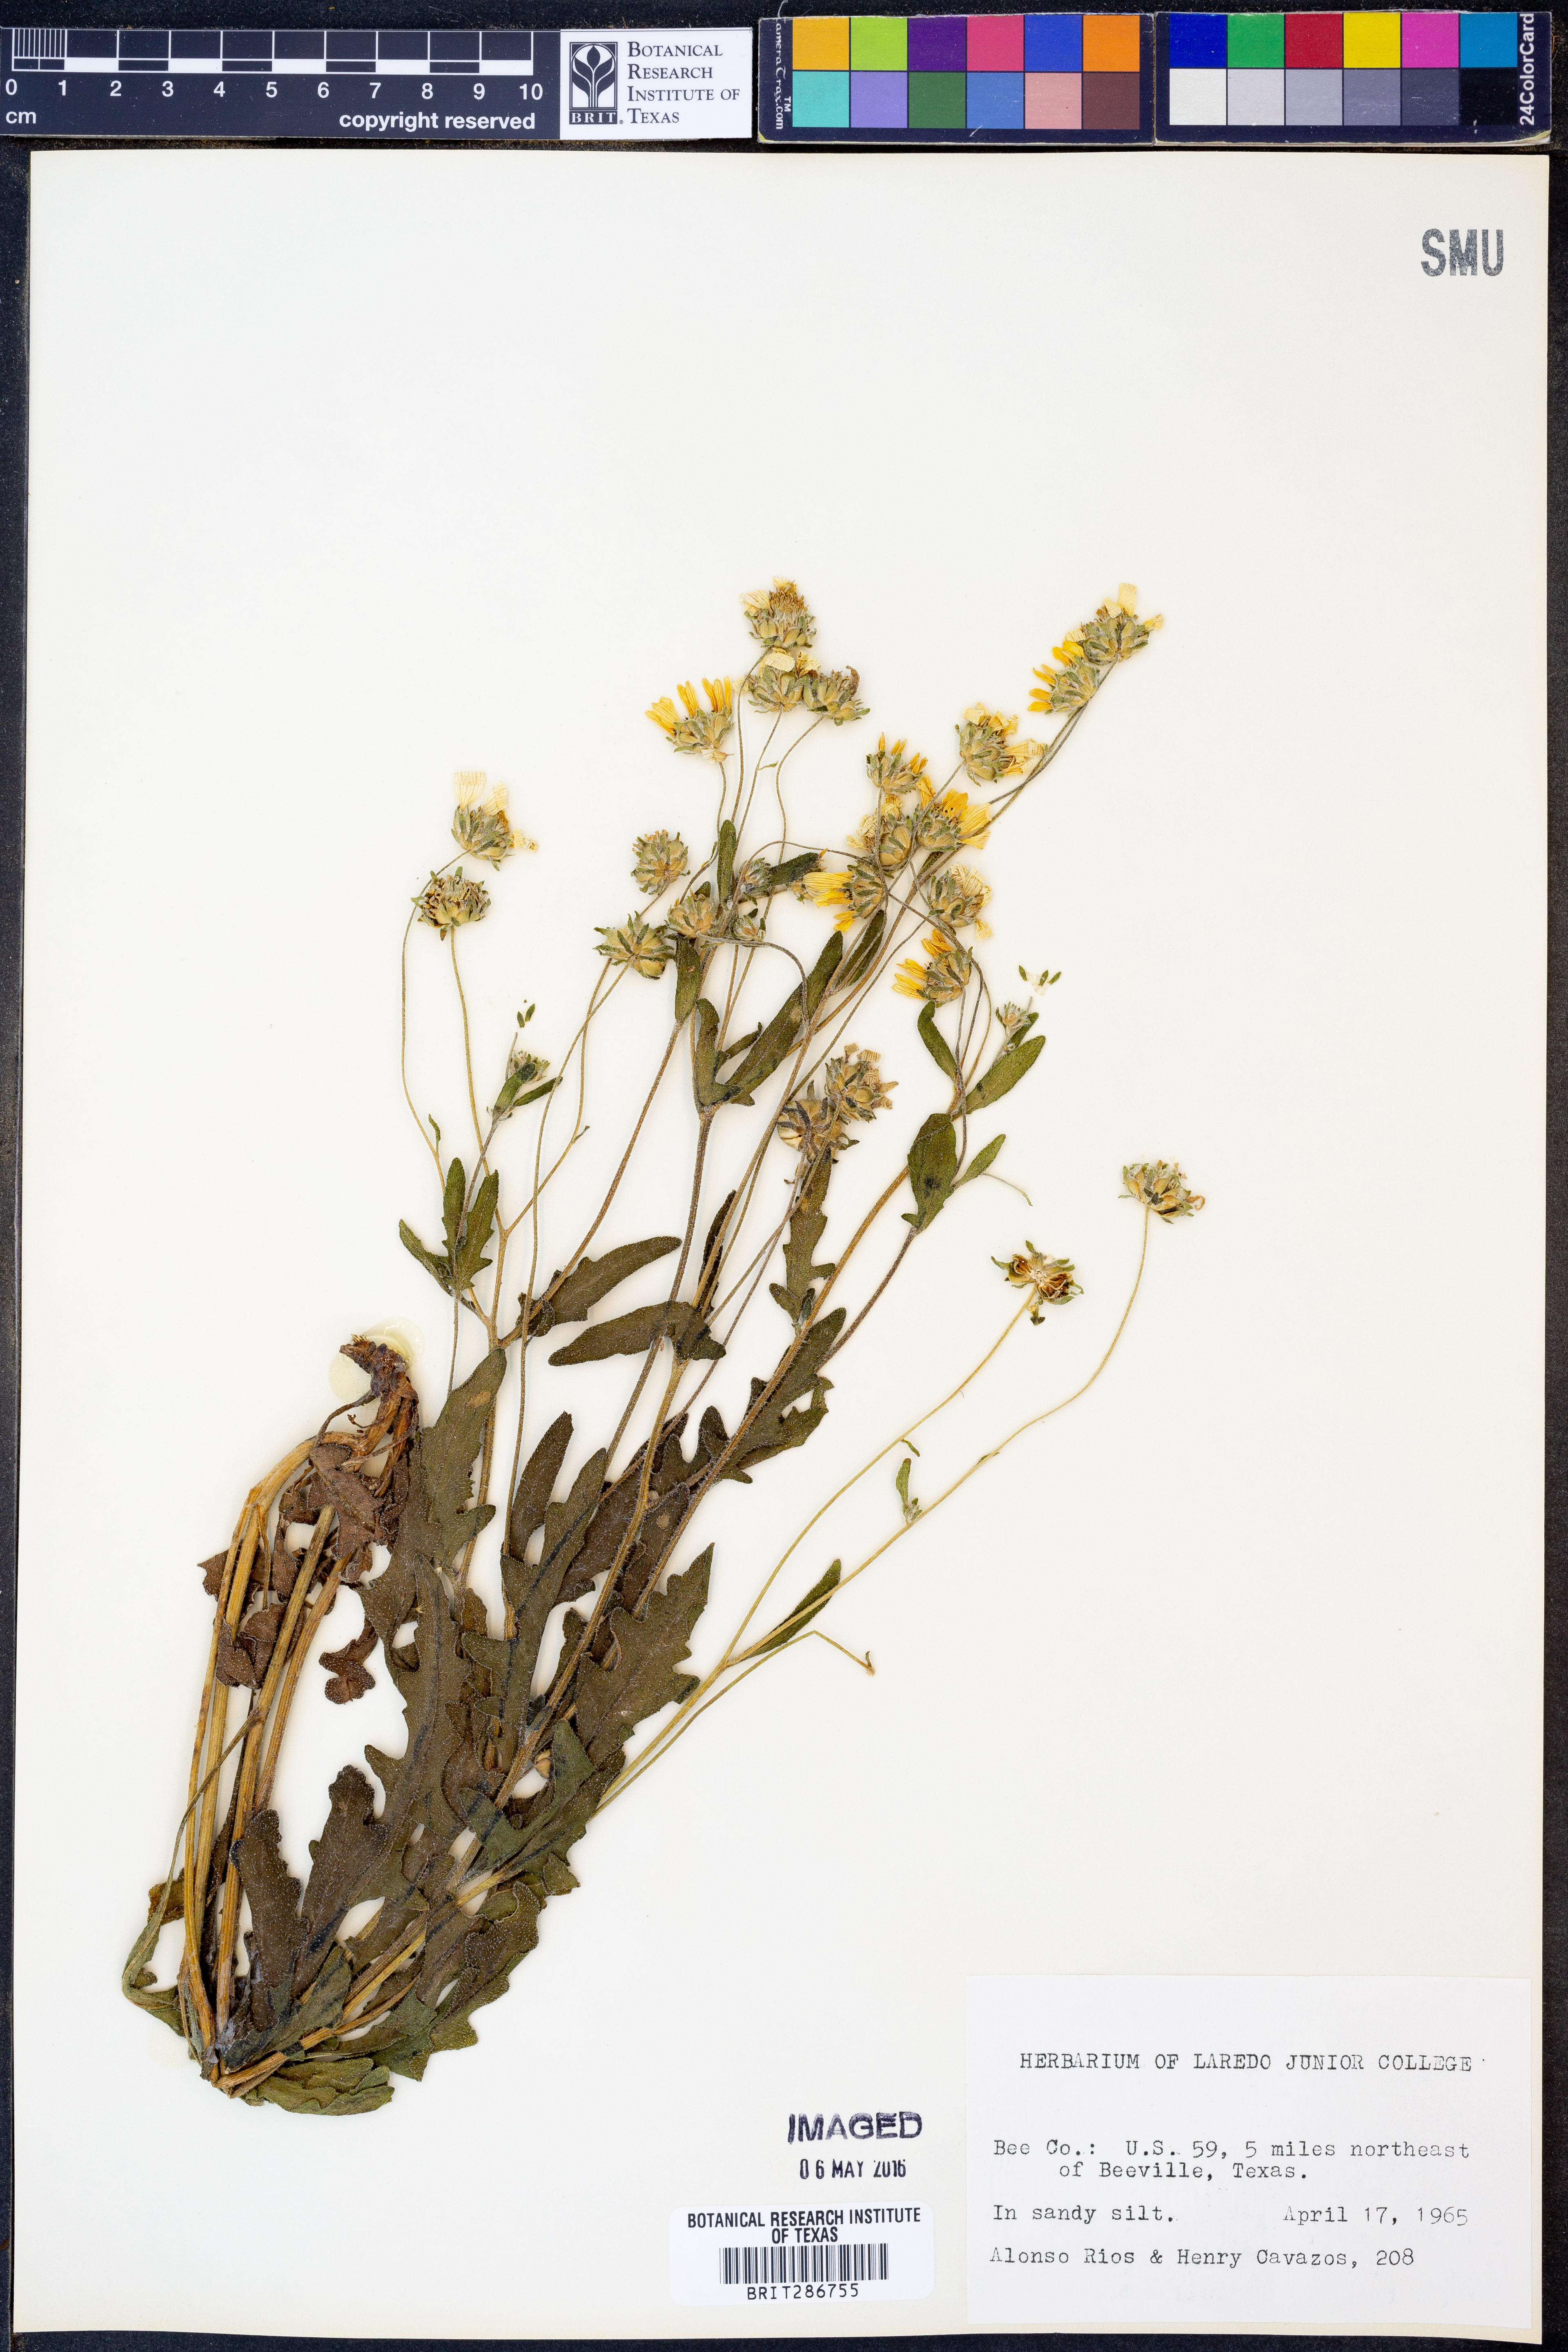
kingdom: Plantae
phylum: Tracheophyta
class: Magnoliopsida
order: Asterales
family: Asteraceae
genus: Engelmannia
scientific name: Engelmannia peristenia
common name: Engelmann's daisy
